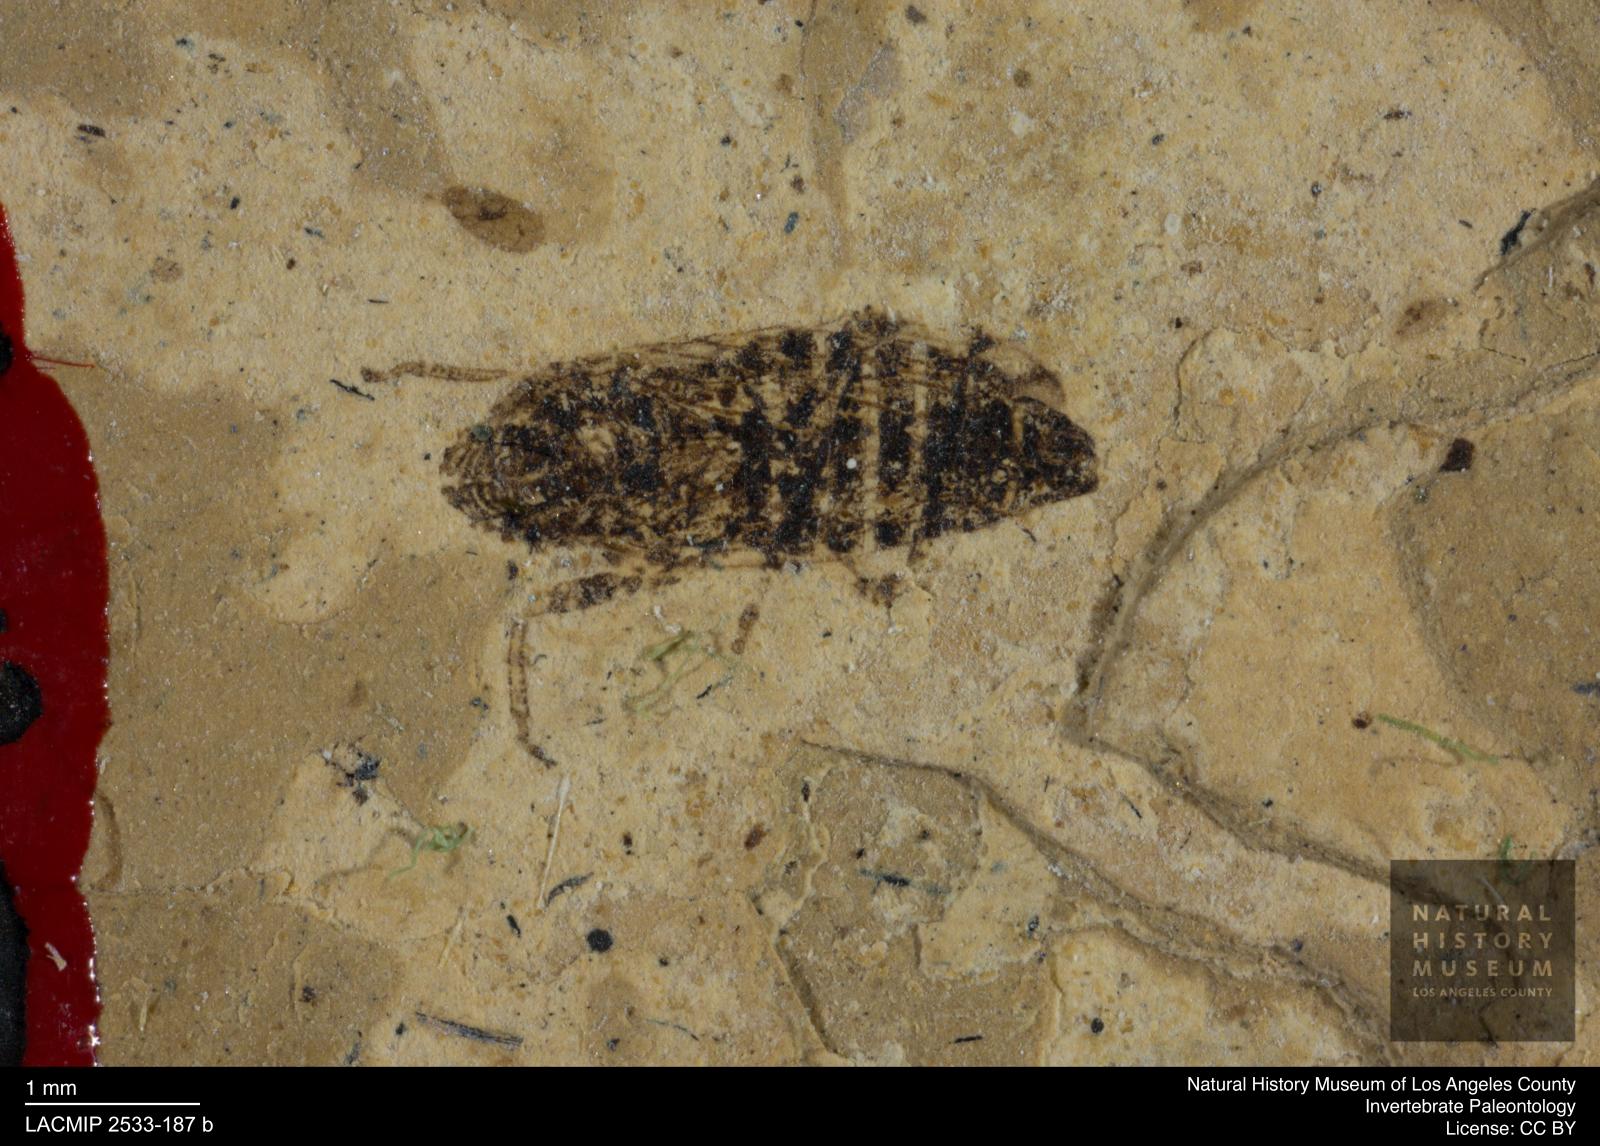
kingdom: Animalia
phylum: Arthropoda
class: Insecta
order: Hemiptera
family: Cicadellidae
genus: Thamnotettix
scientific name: Thamnotettix ampliventris
